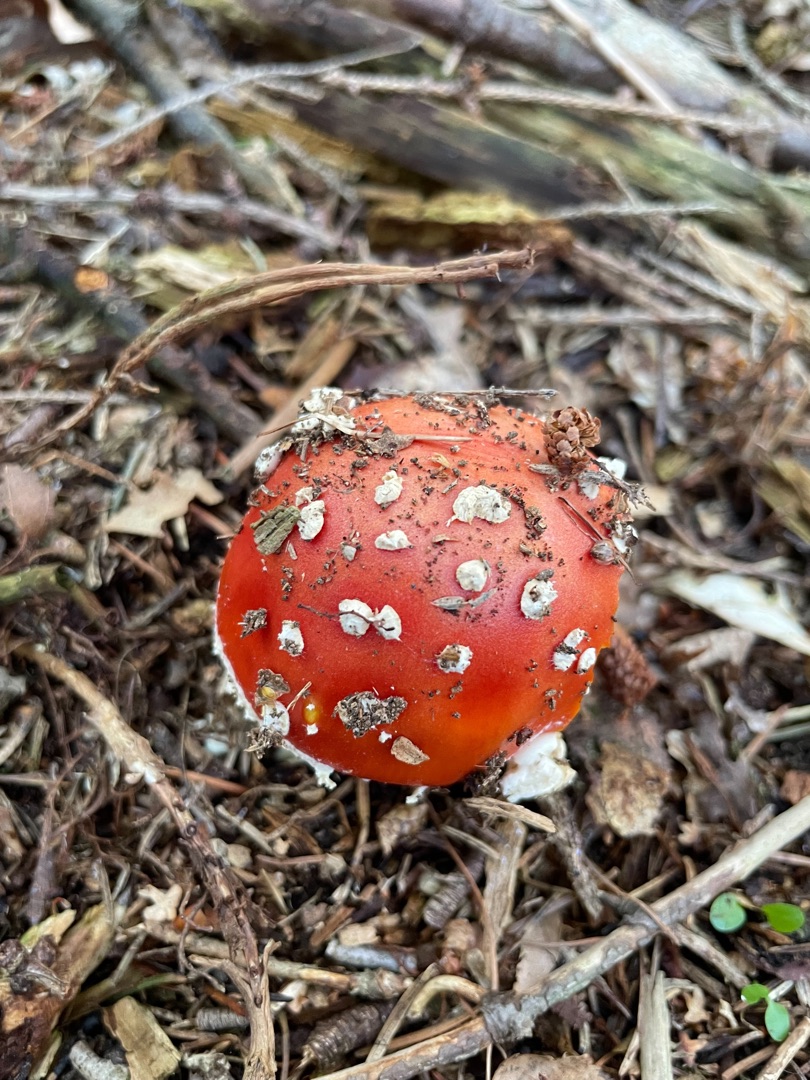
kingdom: Fungi
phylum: Basidiomycota
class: Agaricomycetes
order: Agaricales
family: Amanitaceae
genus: Amanita
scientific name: Amanita muscaria
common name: Rød fluesvamp
